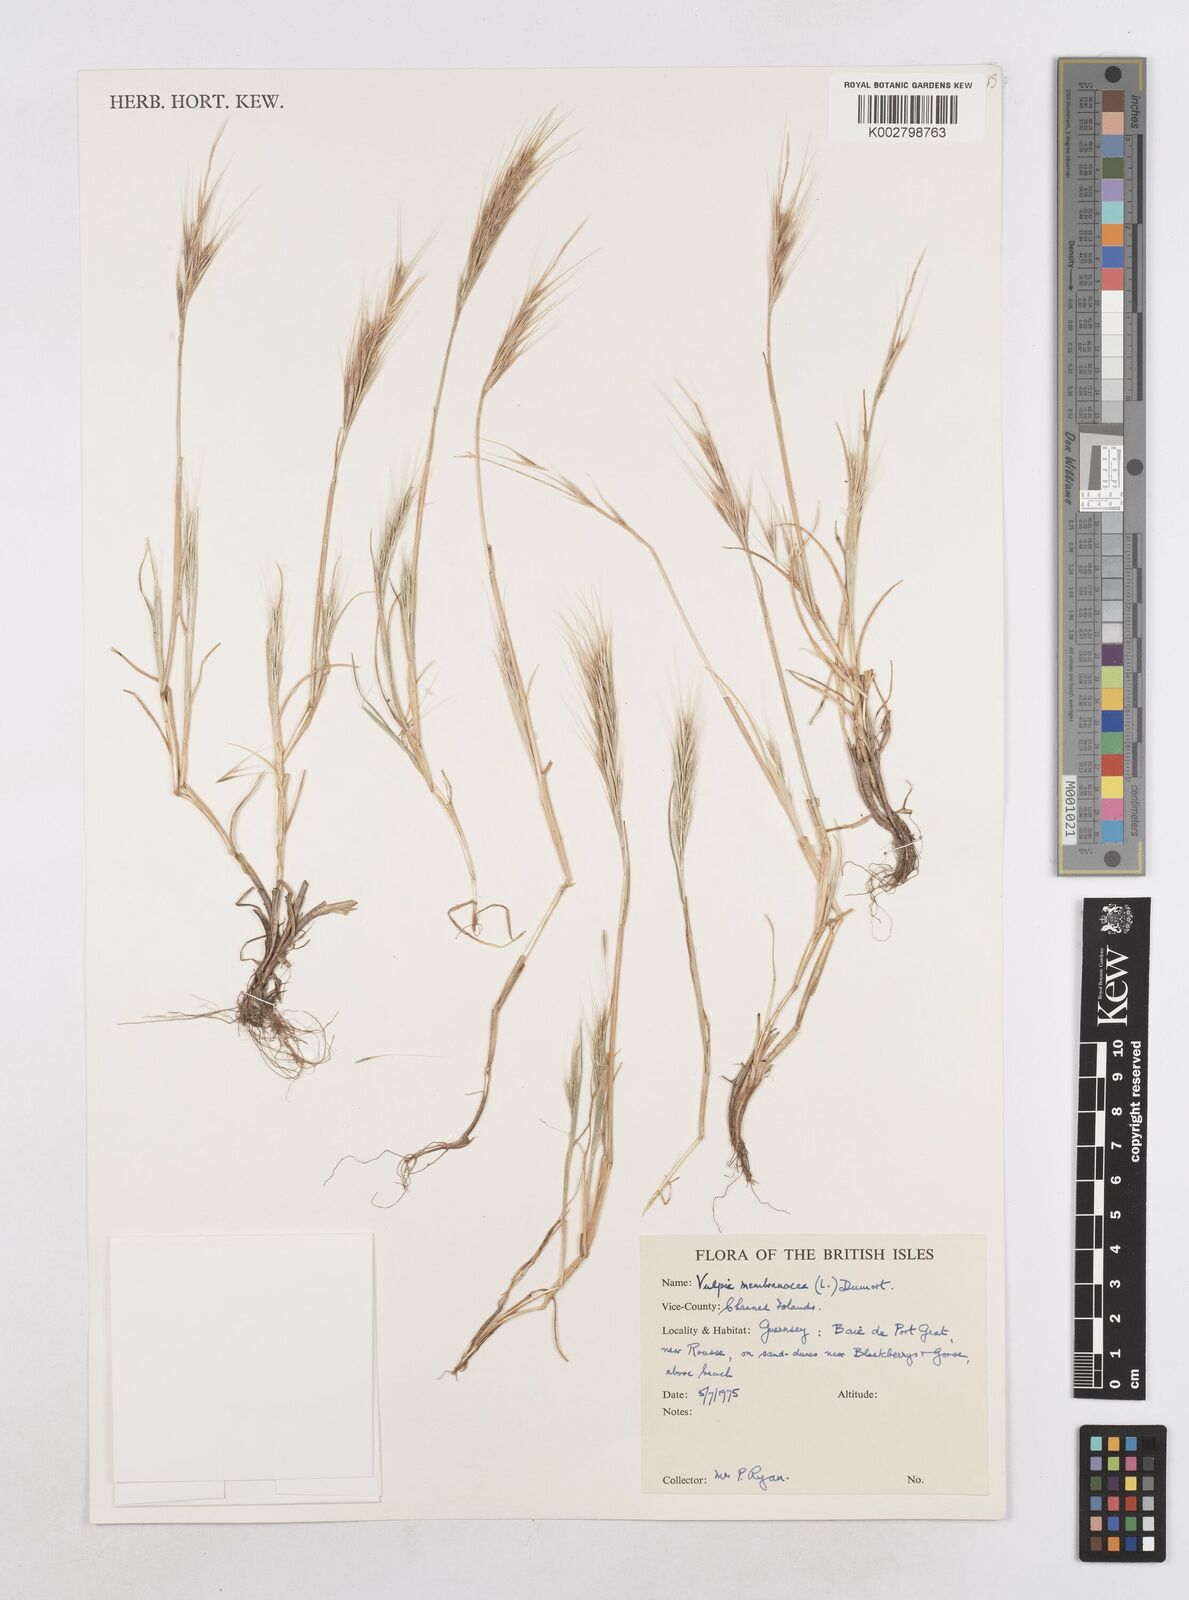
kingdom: Plantae
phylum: Tracheophyta
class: Liliopsida
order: Poales
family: Poaceae
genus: Festuca
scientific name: Festuca fasciculata
